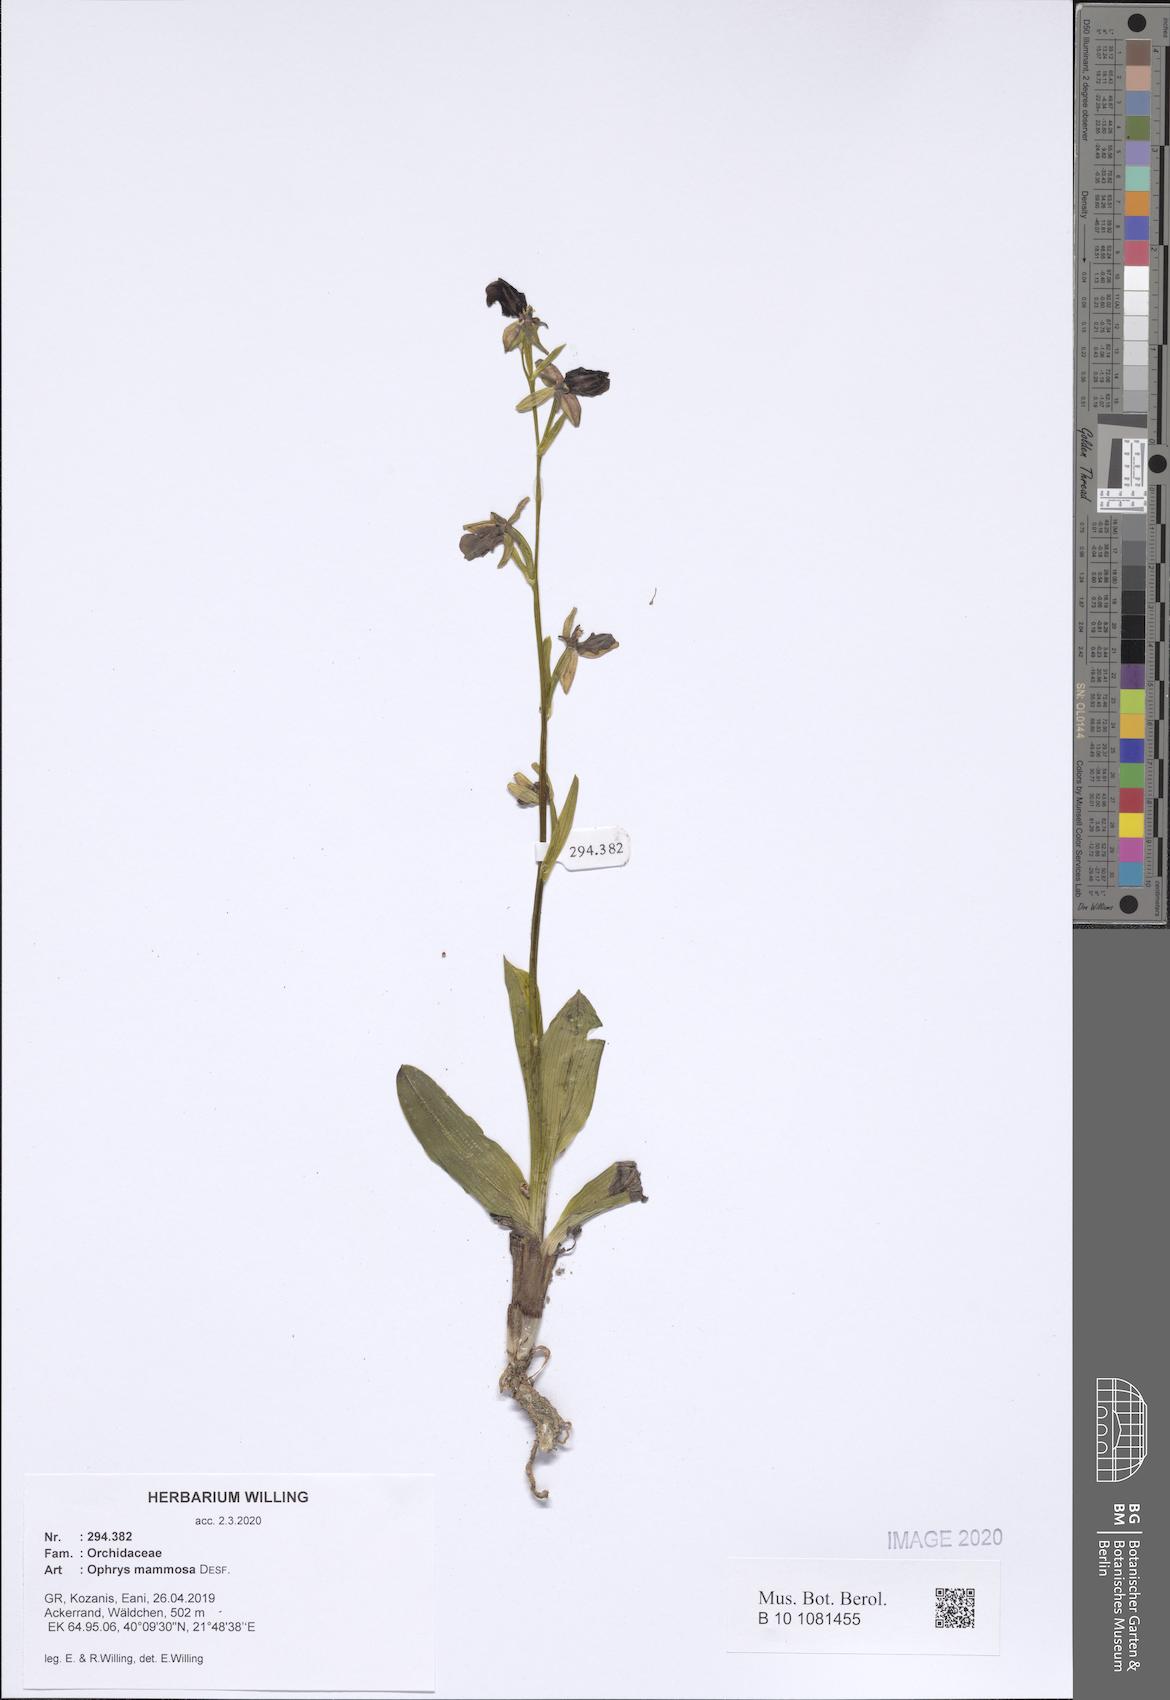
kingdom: Plantae
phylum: Tracheophyta
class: Liliopsida
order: Asparagales
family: Orchidaceae
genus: Ophrys
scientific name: Ophrys sphegodes
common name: Early spider-orchid
